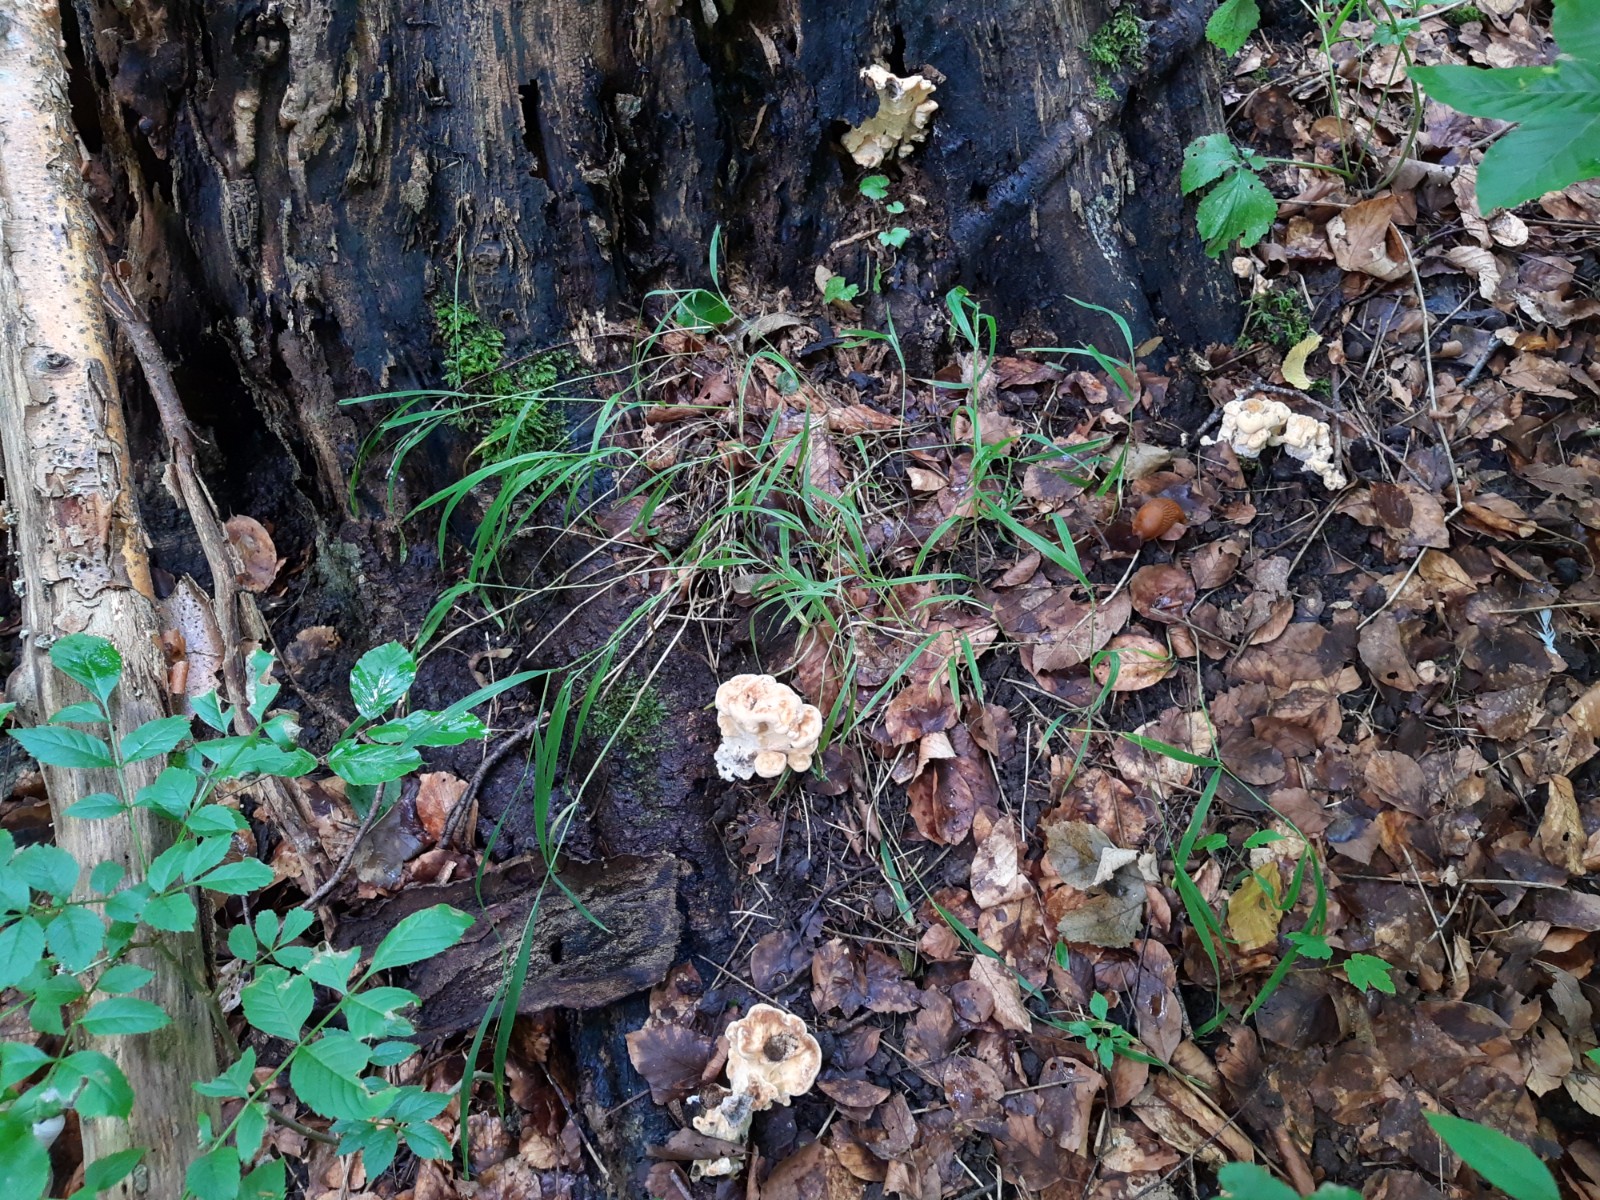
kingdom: Fungi
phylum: Basidiomycota
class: Agaricomycetes
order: Polyporales
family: Meripilaceae
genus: Meripilus
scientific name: Meripilus giganteus
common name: kæmpeporesvamp
